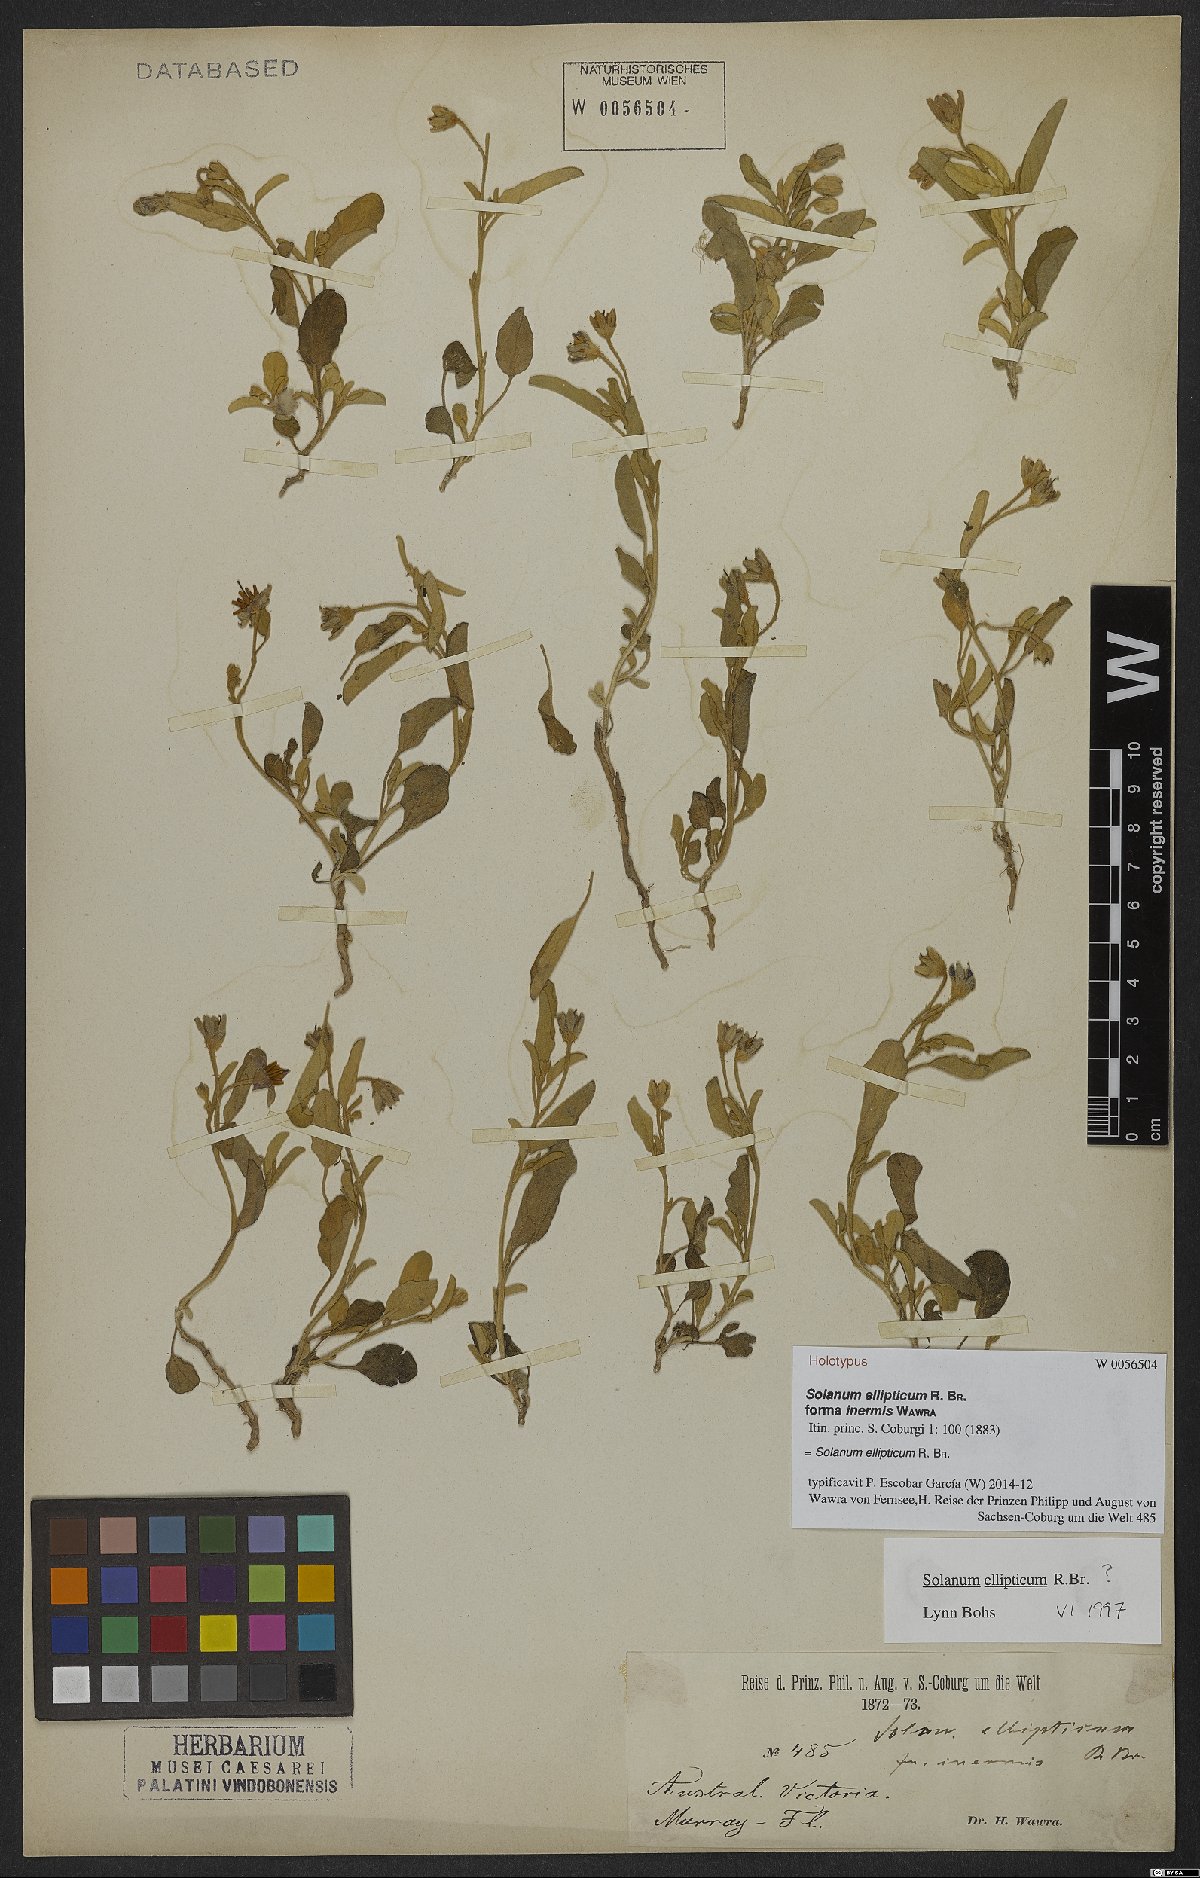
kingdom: Plantae
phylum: Tracheophyta
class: Magnoliopsida
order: Solanales
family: Solanaceae
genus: Solanum
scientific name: Solanum ellipticum
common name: Potato-bush
